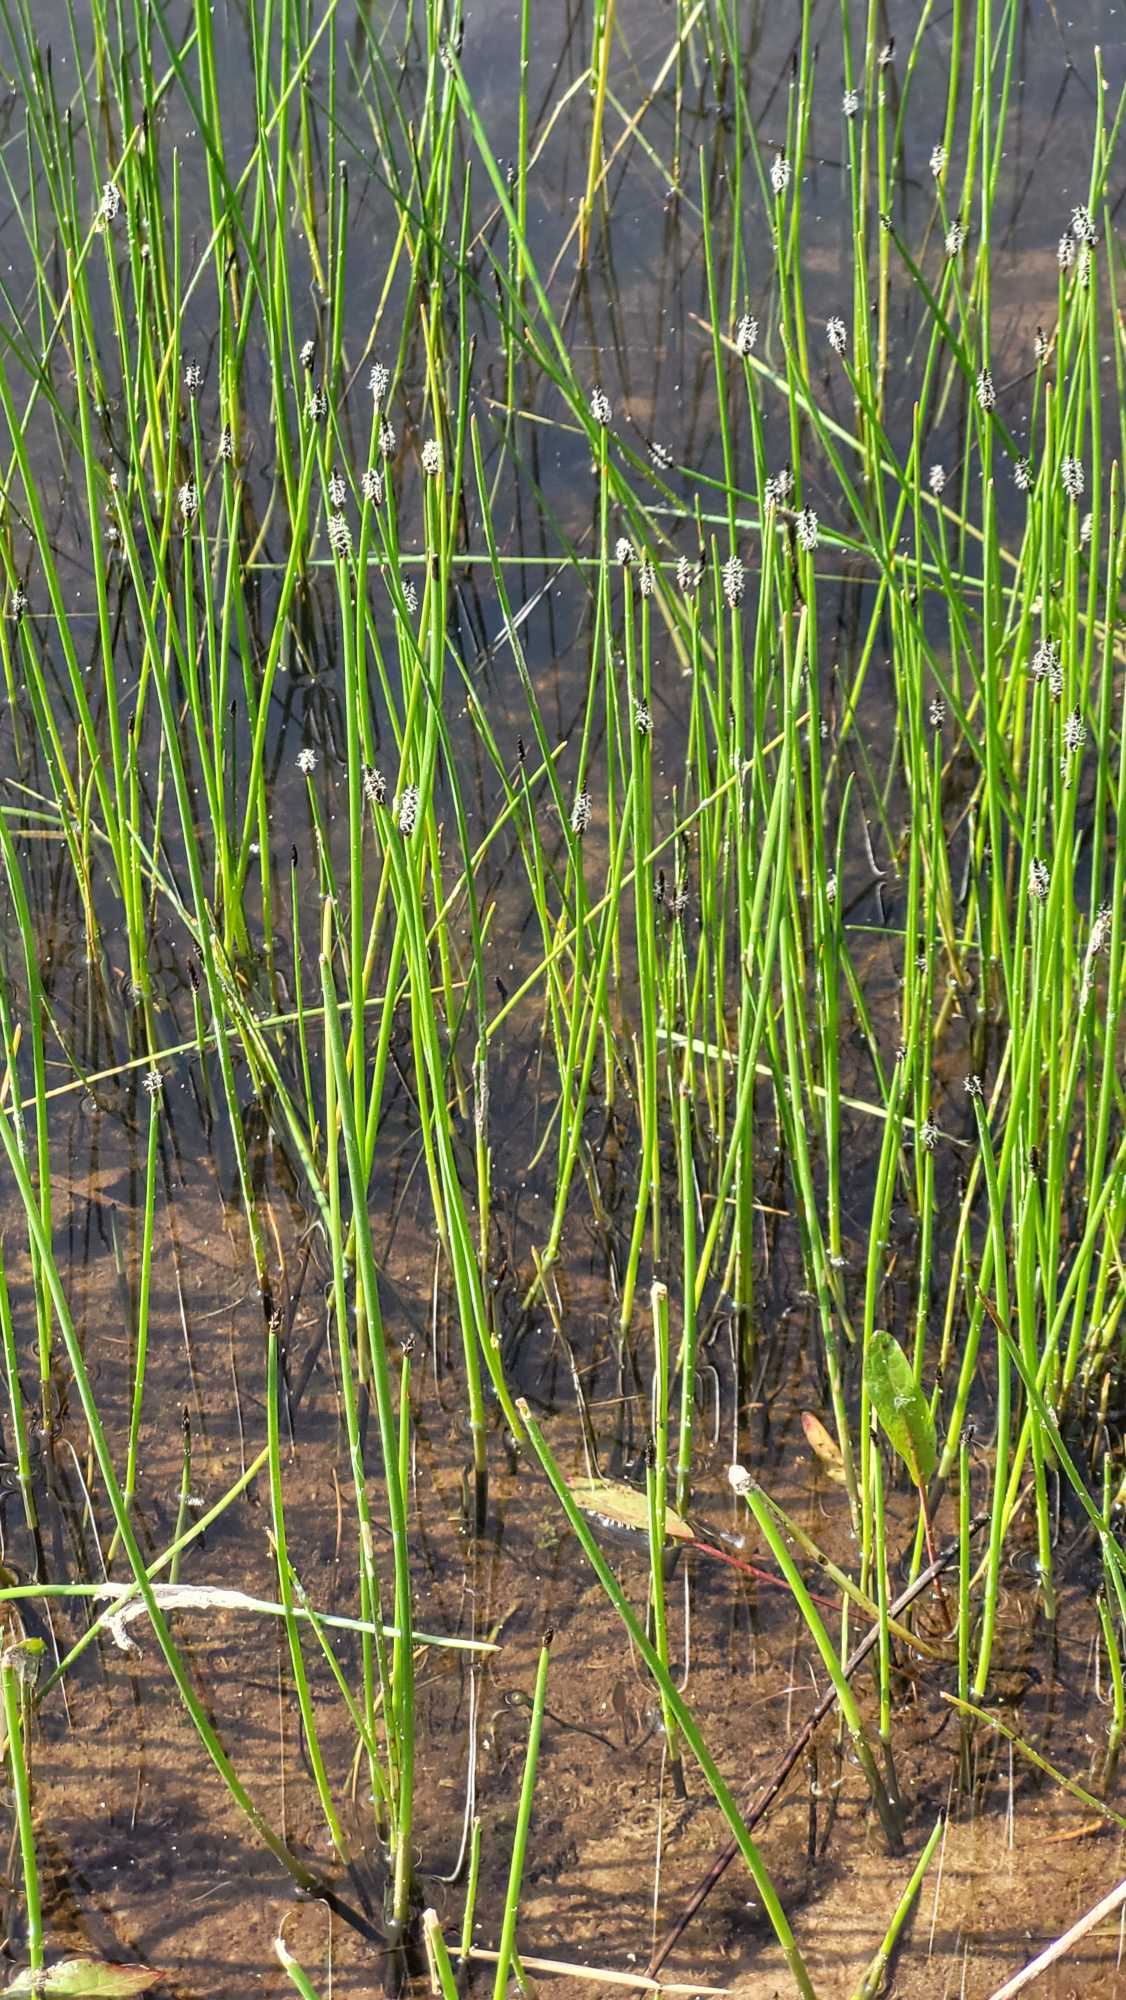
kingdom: Plantae
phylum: Tracheophyta
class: Liliopsida
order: Poales
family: Cyperaceae
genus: Eleocharis
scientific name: Eleocharis palustris
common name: Almindelig sumpstrå
